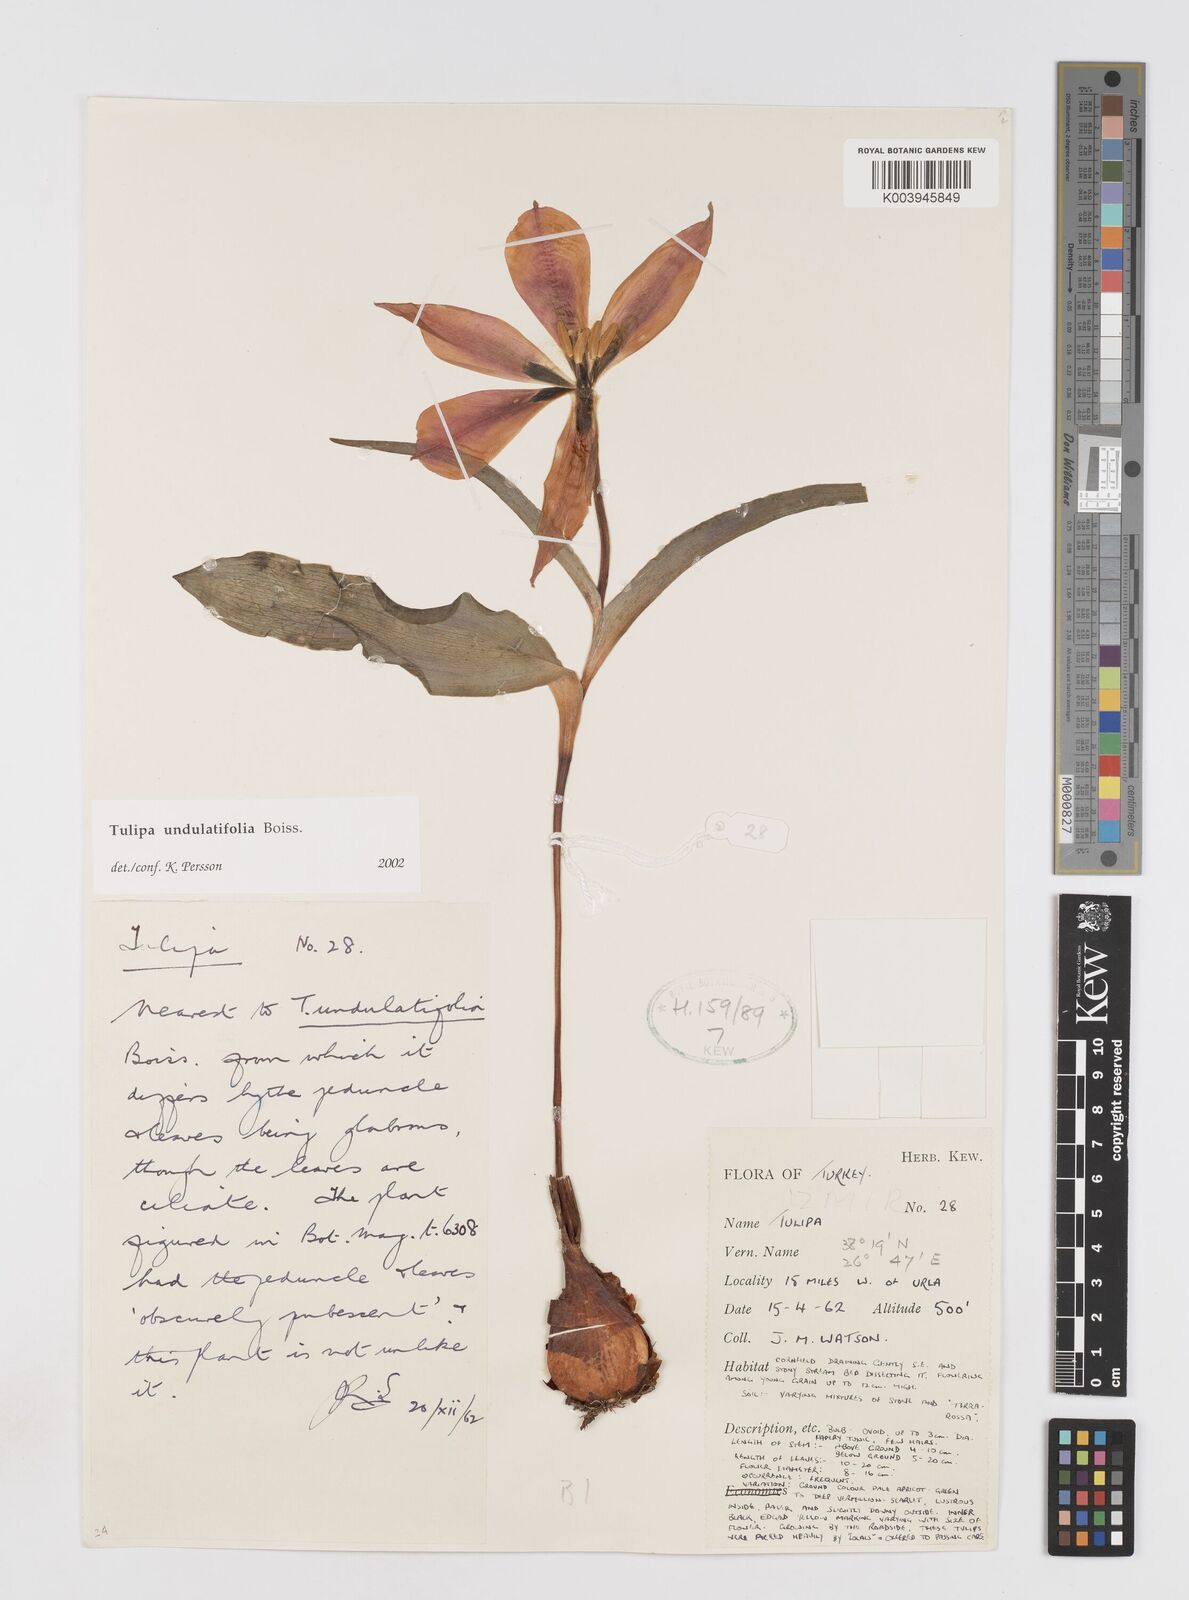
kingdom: Plantae
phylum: Tracheophyta
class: Liliopsida
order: Liliales
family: Liliaceae
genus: Tulipa
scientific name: Tulipa undulatifolia
